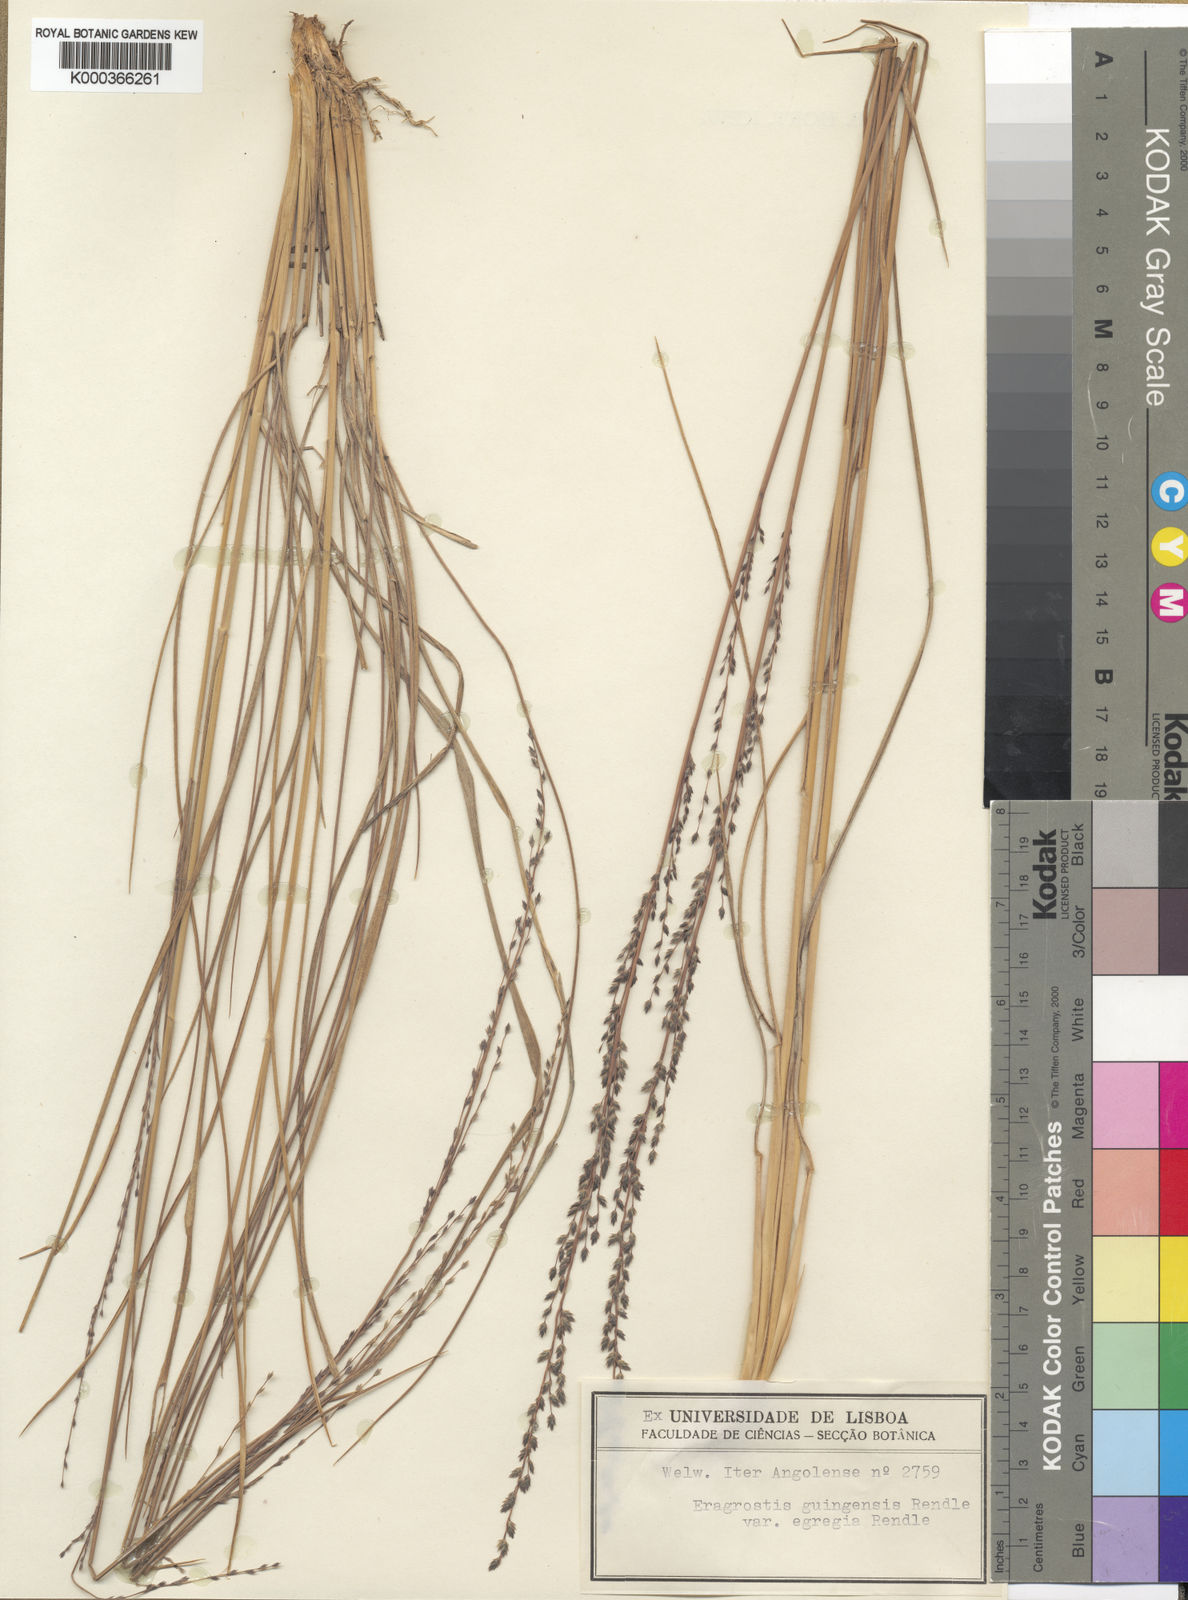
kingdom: Plantae
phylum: Tracheophyta
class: Liliopsida
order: Poales
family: Poaceae
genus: Eragrostis
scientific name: Eragrostis nindensis
